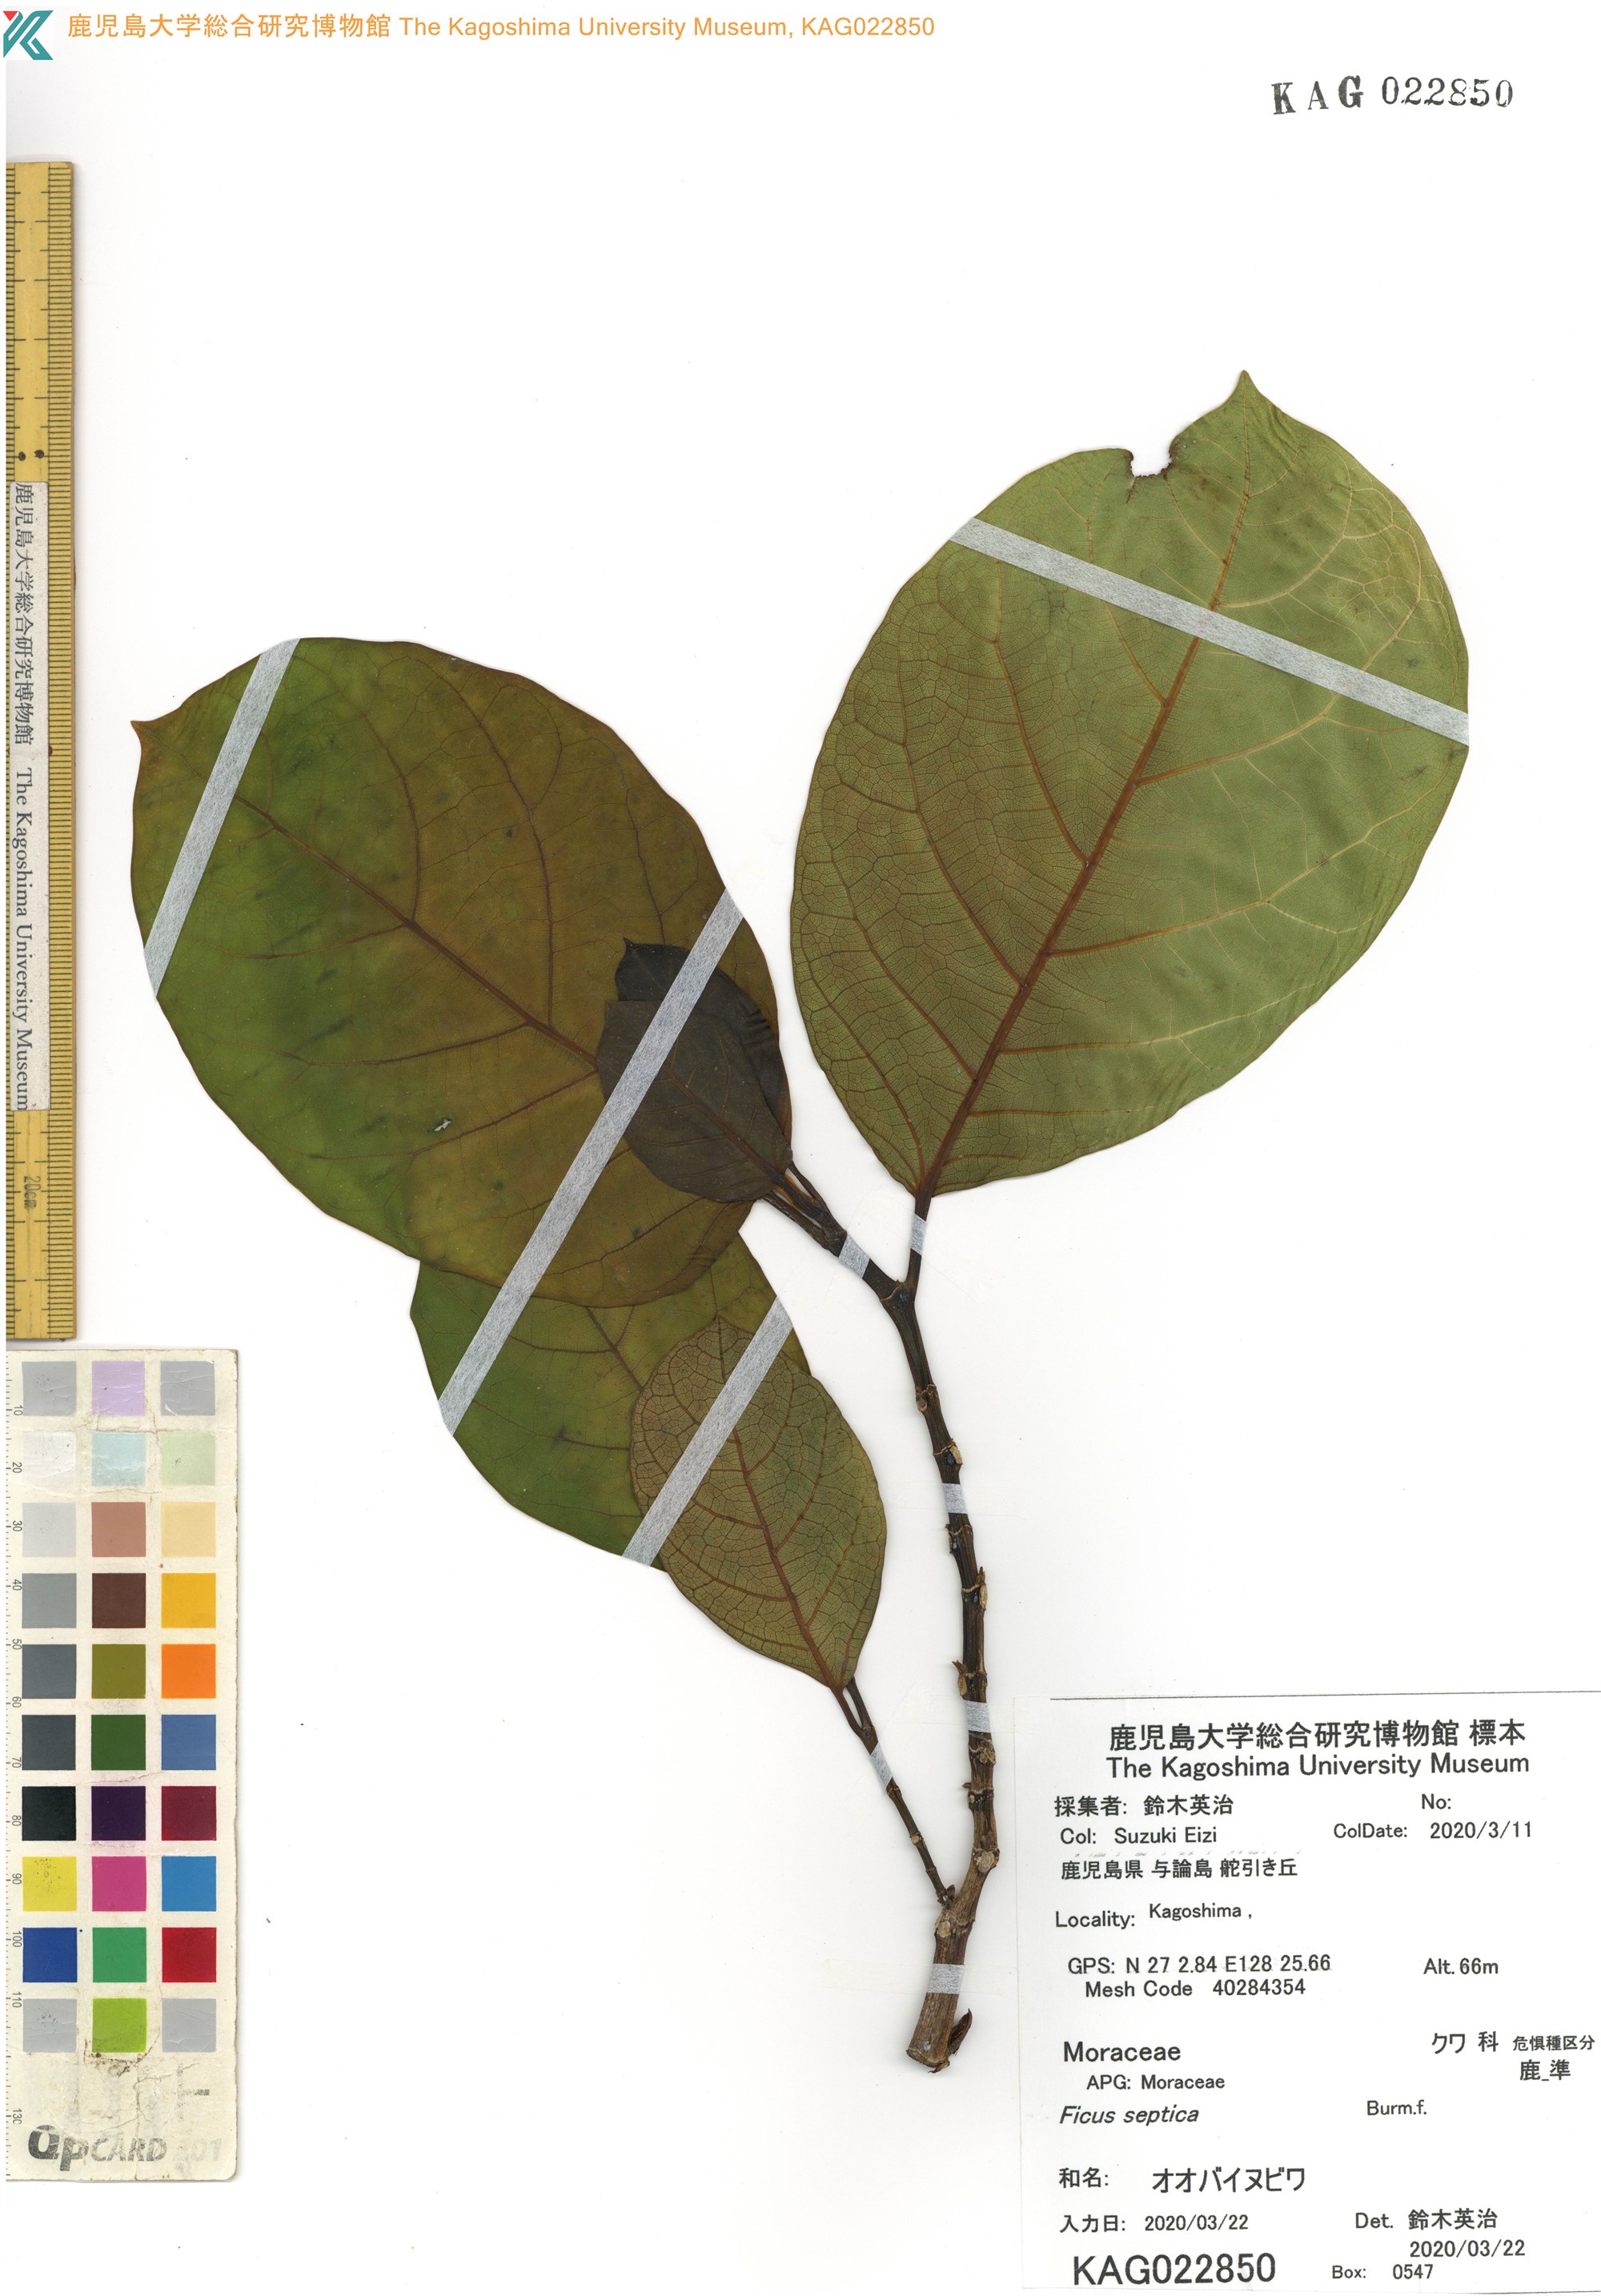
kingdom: Plantae
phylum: Tracheophyta
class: Magnoliopsida
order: Rosales
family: Moraceae
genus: Ficus
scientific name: Ficus septica
